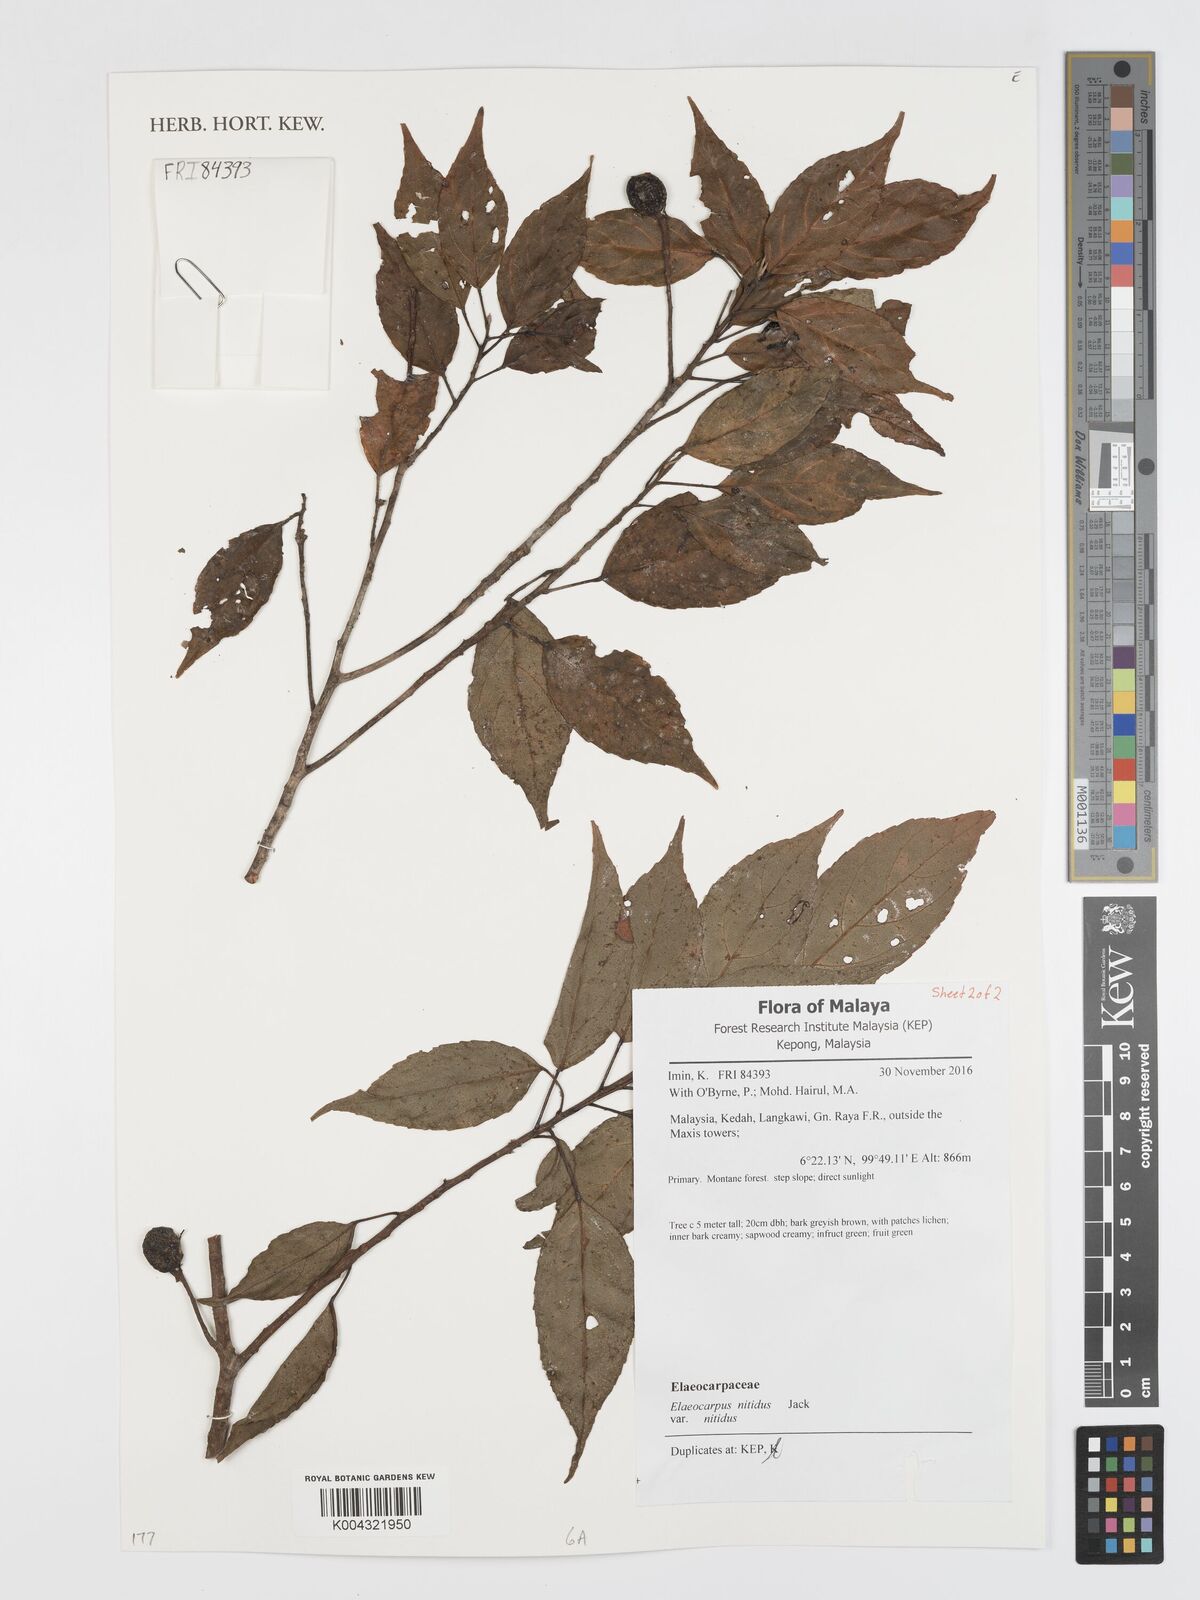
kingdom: Plantae
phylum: Tracheophyta
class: Magnoliopsida
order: Oxalidales
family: Elaeocarpaceae
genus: Elaeocarpus
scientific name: Elaeocarpus nitidus
